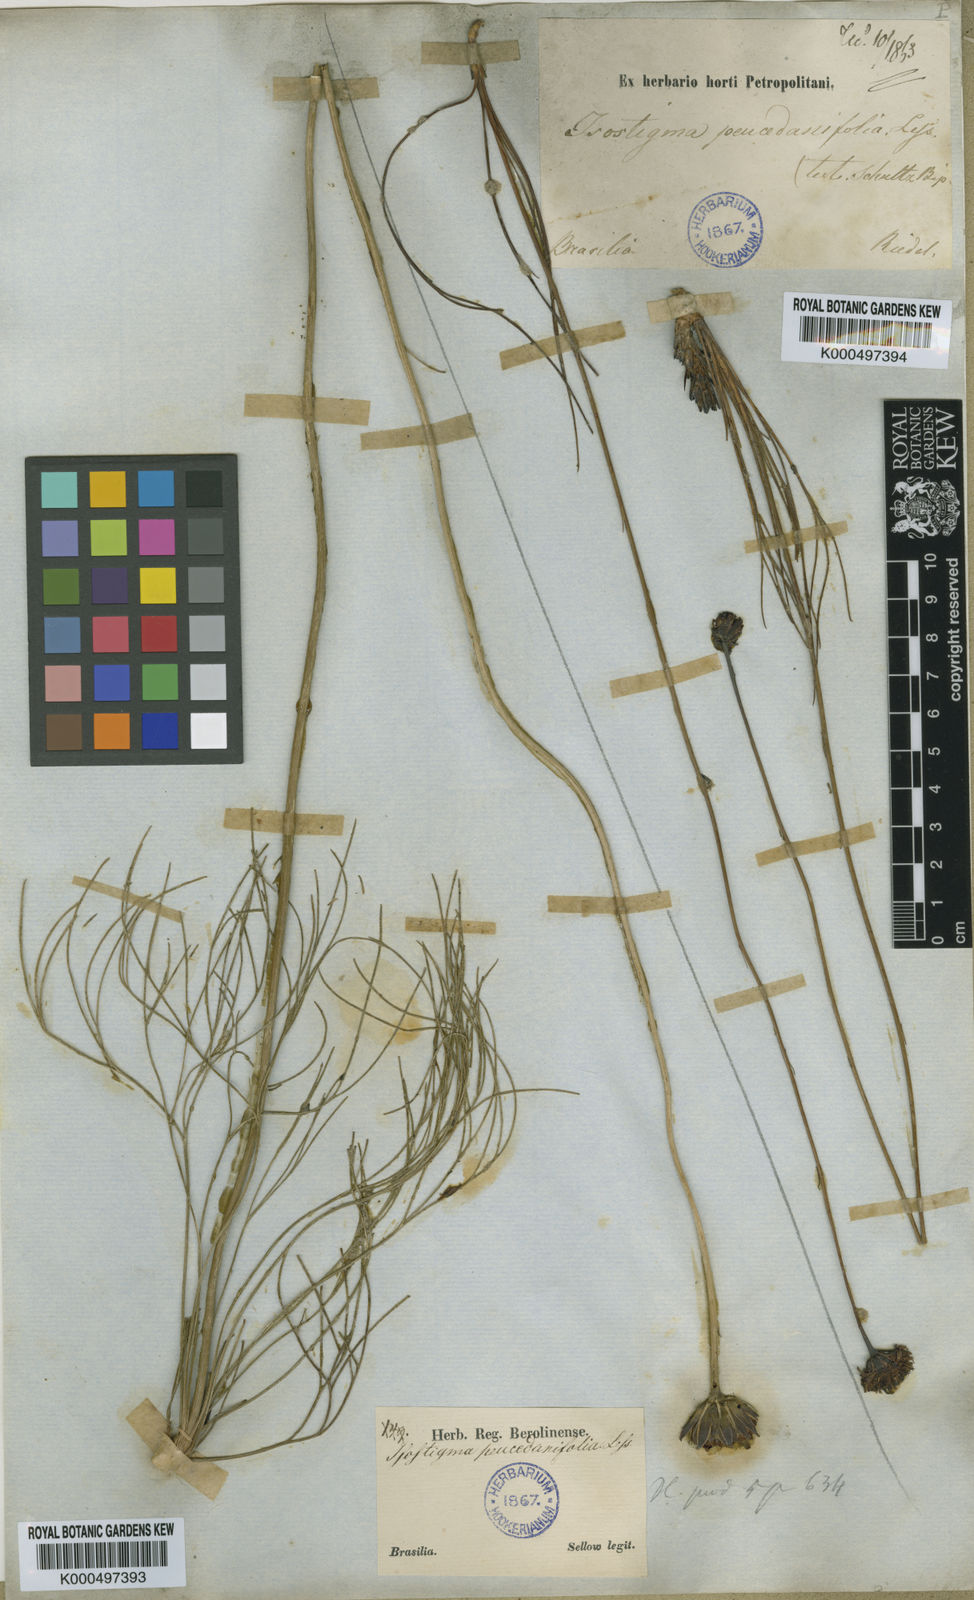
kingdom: Plantae
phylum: Tracheophyta
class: Magnoliopsida
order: Asterales
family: Asteraceae
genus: Isostigma
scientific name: Isostigma peucedanifolium
